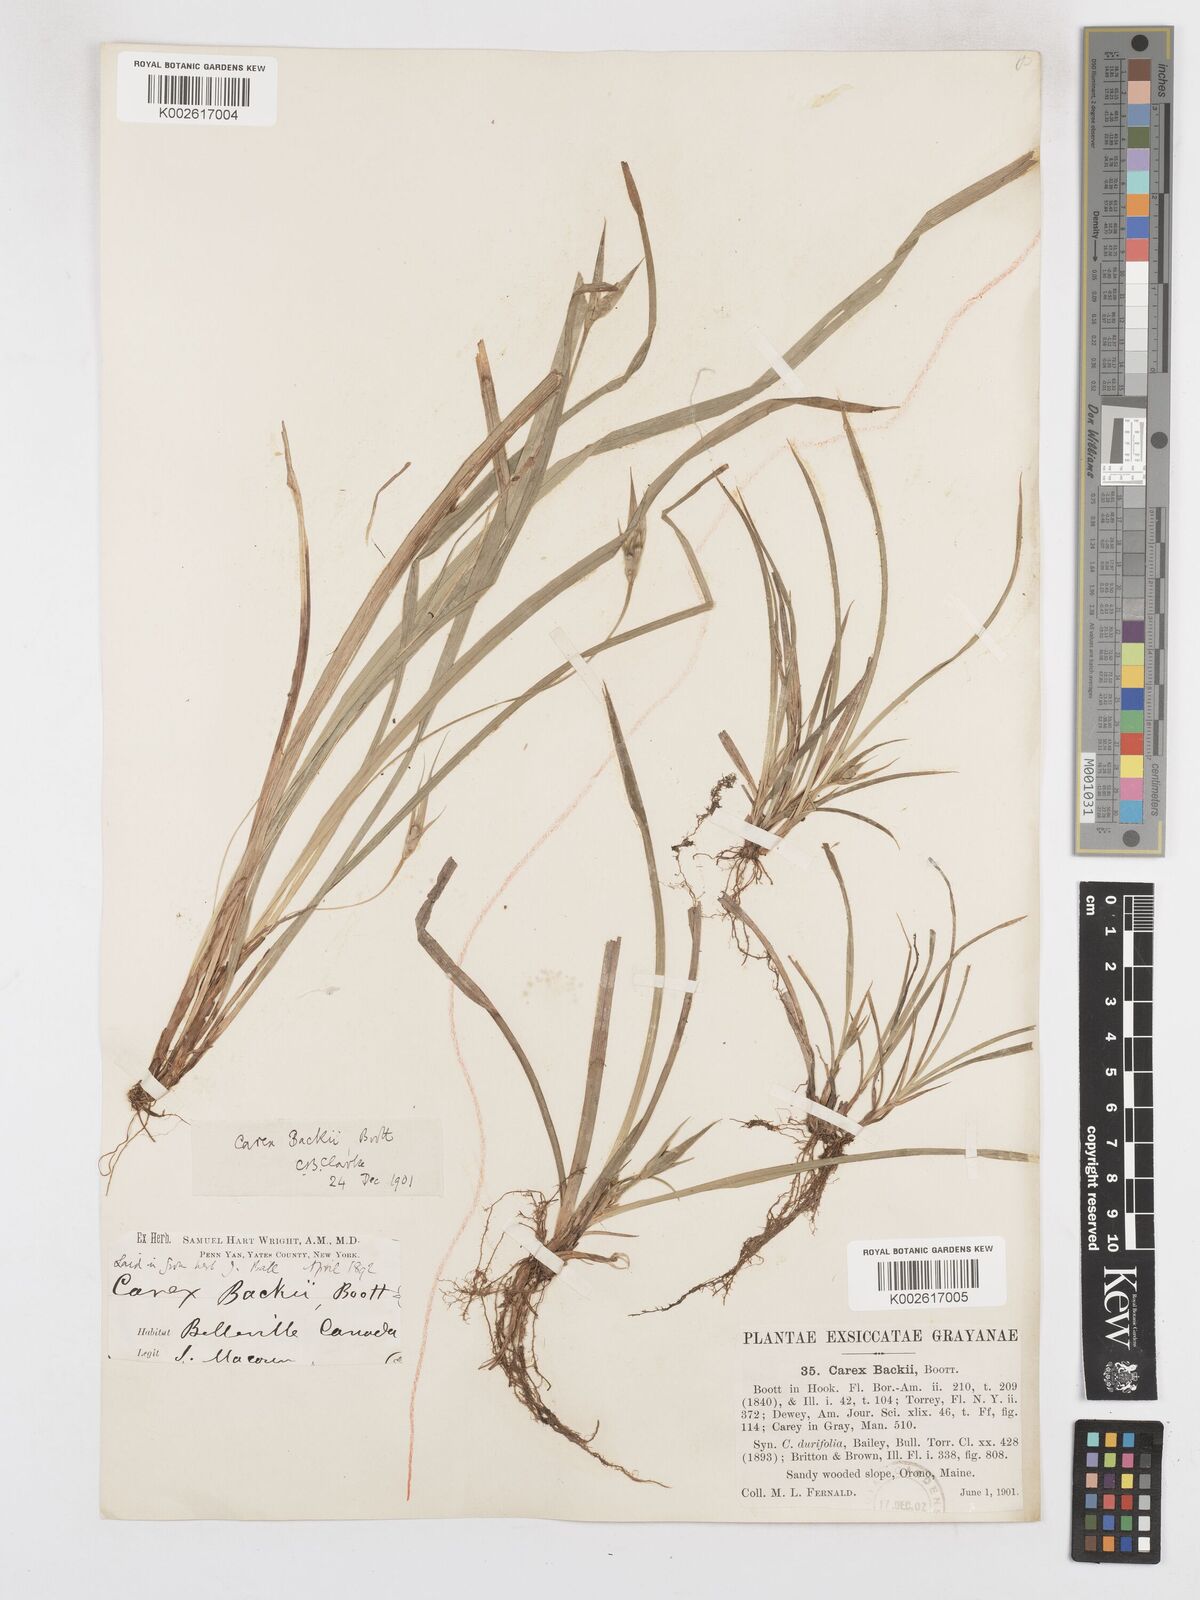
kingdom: Plantae
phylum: Tracheophyta
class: Liliopsida
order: Poales
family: Cyperaceae
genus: Carex
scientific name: Carex backii
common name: Back's sedge
